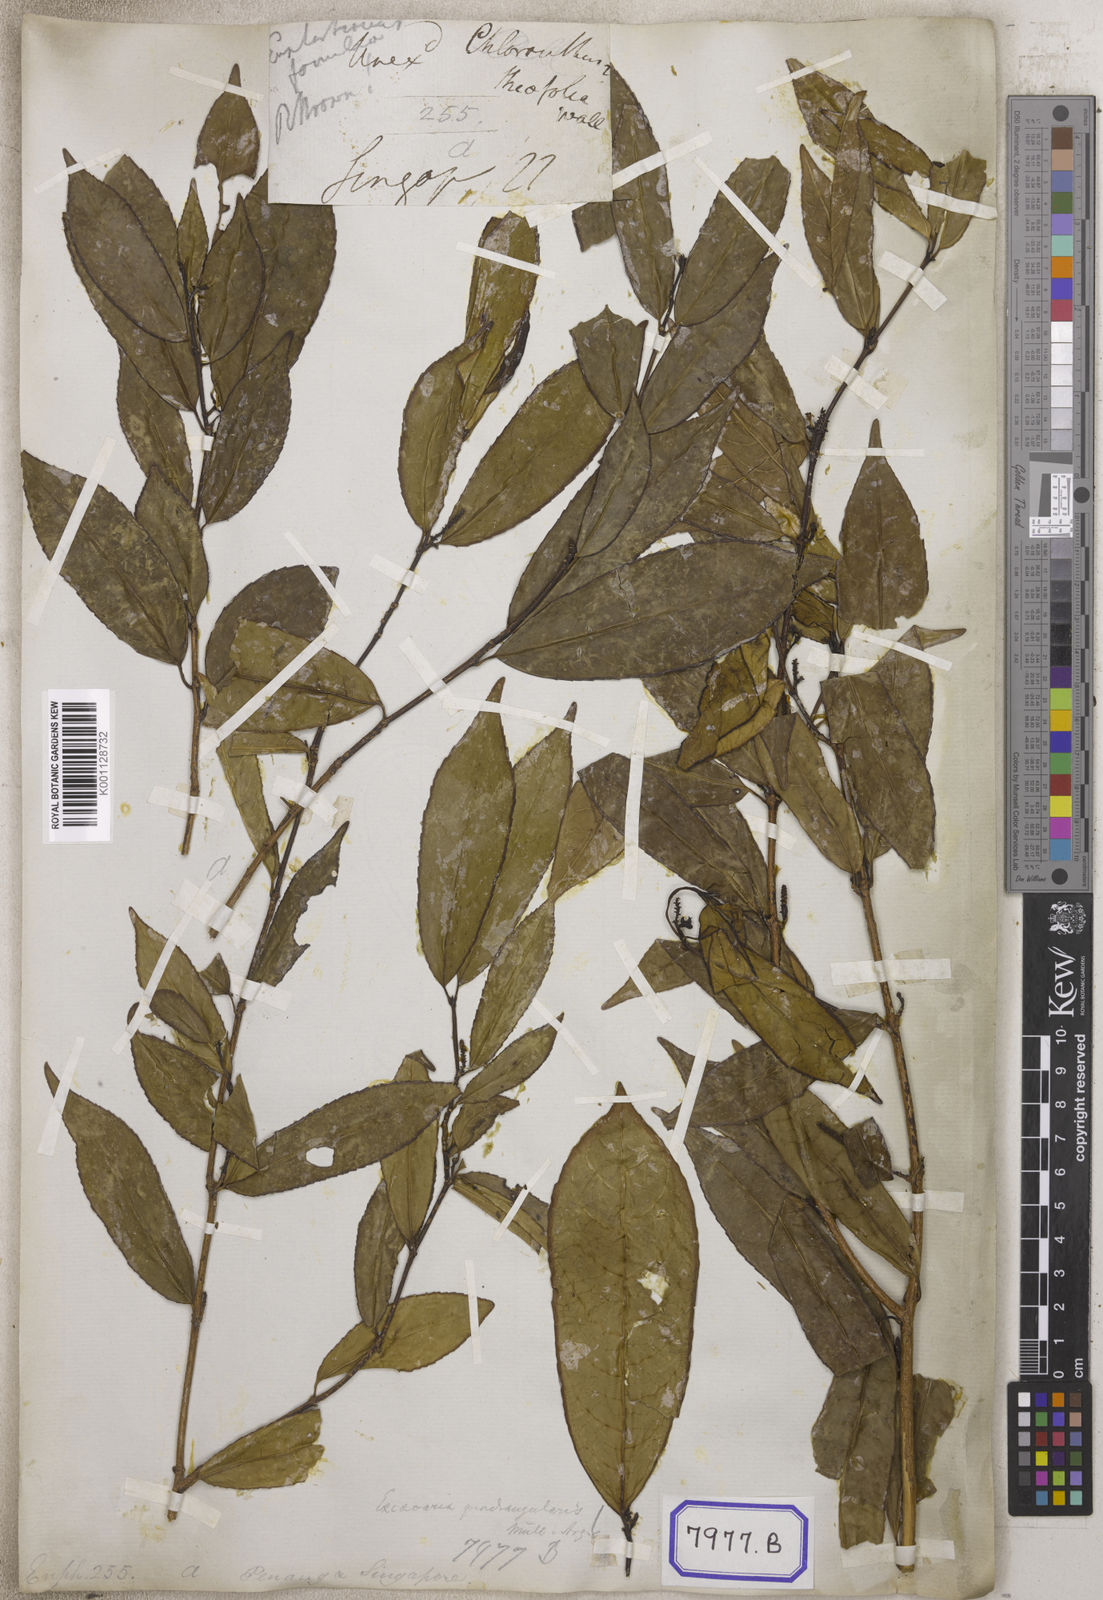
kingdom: Plantae
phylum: Tracheophyta
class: Magnoliopsida
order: Malpighiales
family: Euphorbiaceae
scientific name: Euphorbiaceae
